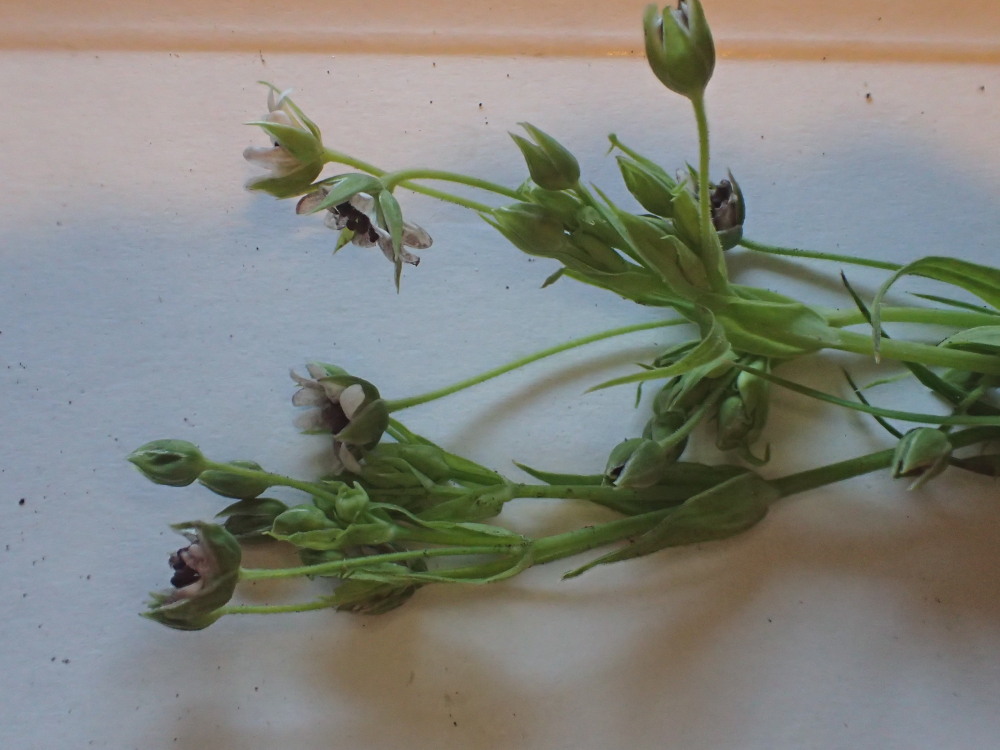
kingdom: Fungi
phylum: Basidiomycota
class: Microbotryomycetes
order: Microbotryales
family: Microbotryaceae
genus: Microbotryum
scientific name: Microbotryum stellariae
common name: fladstjerne-støvbladrust
